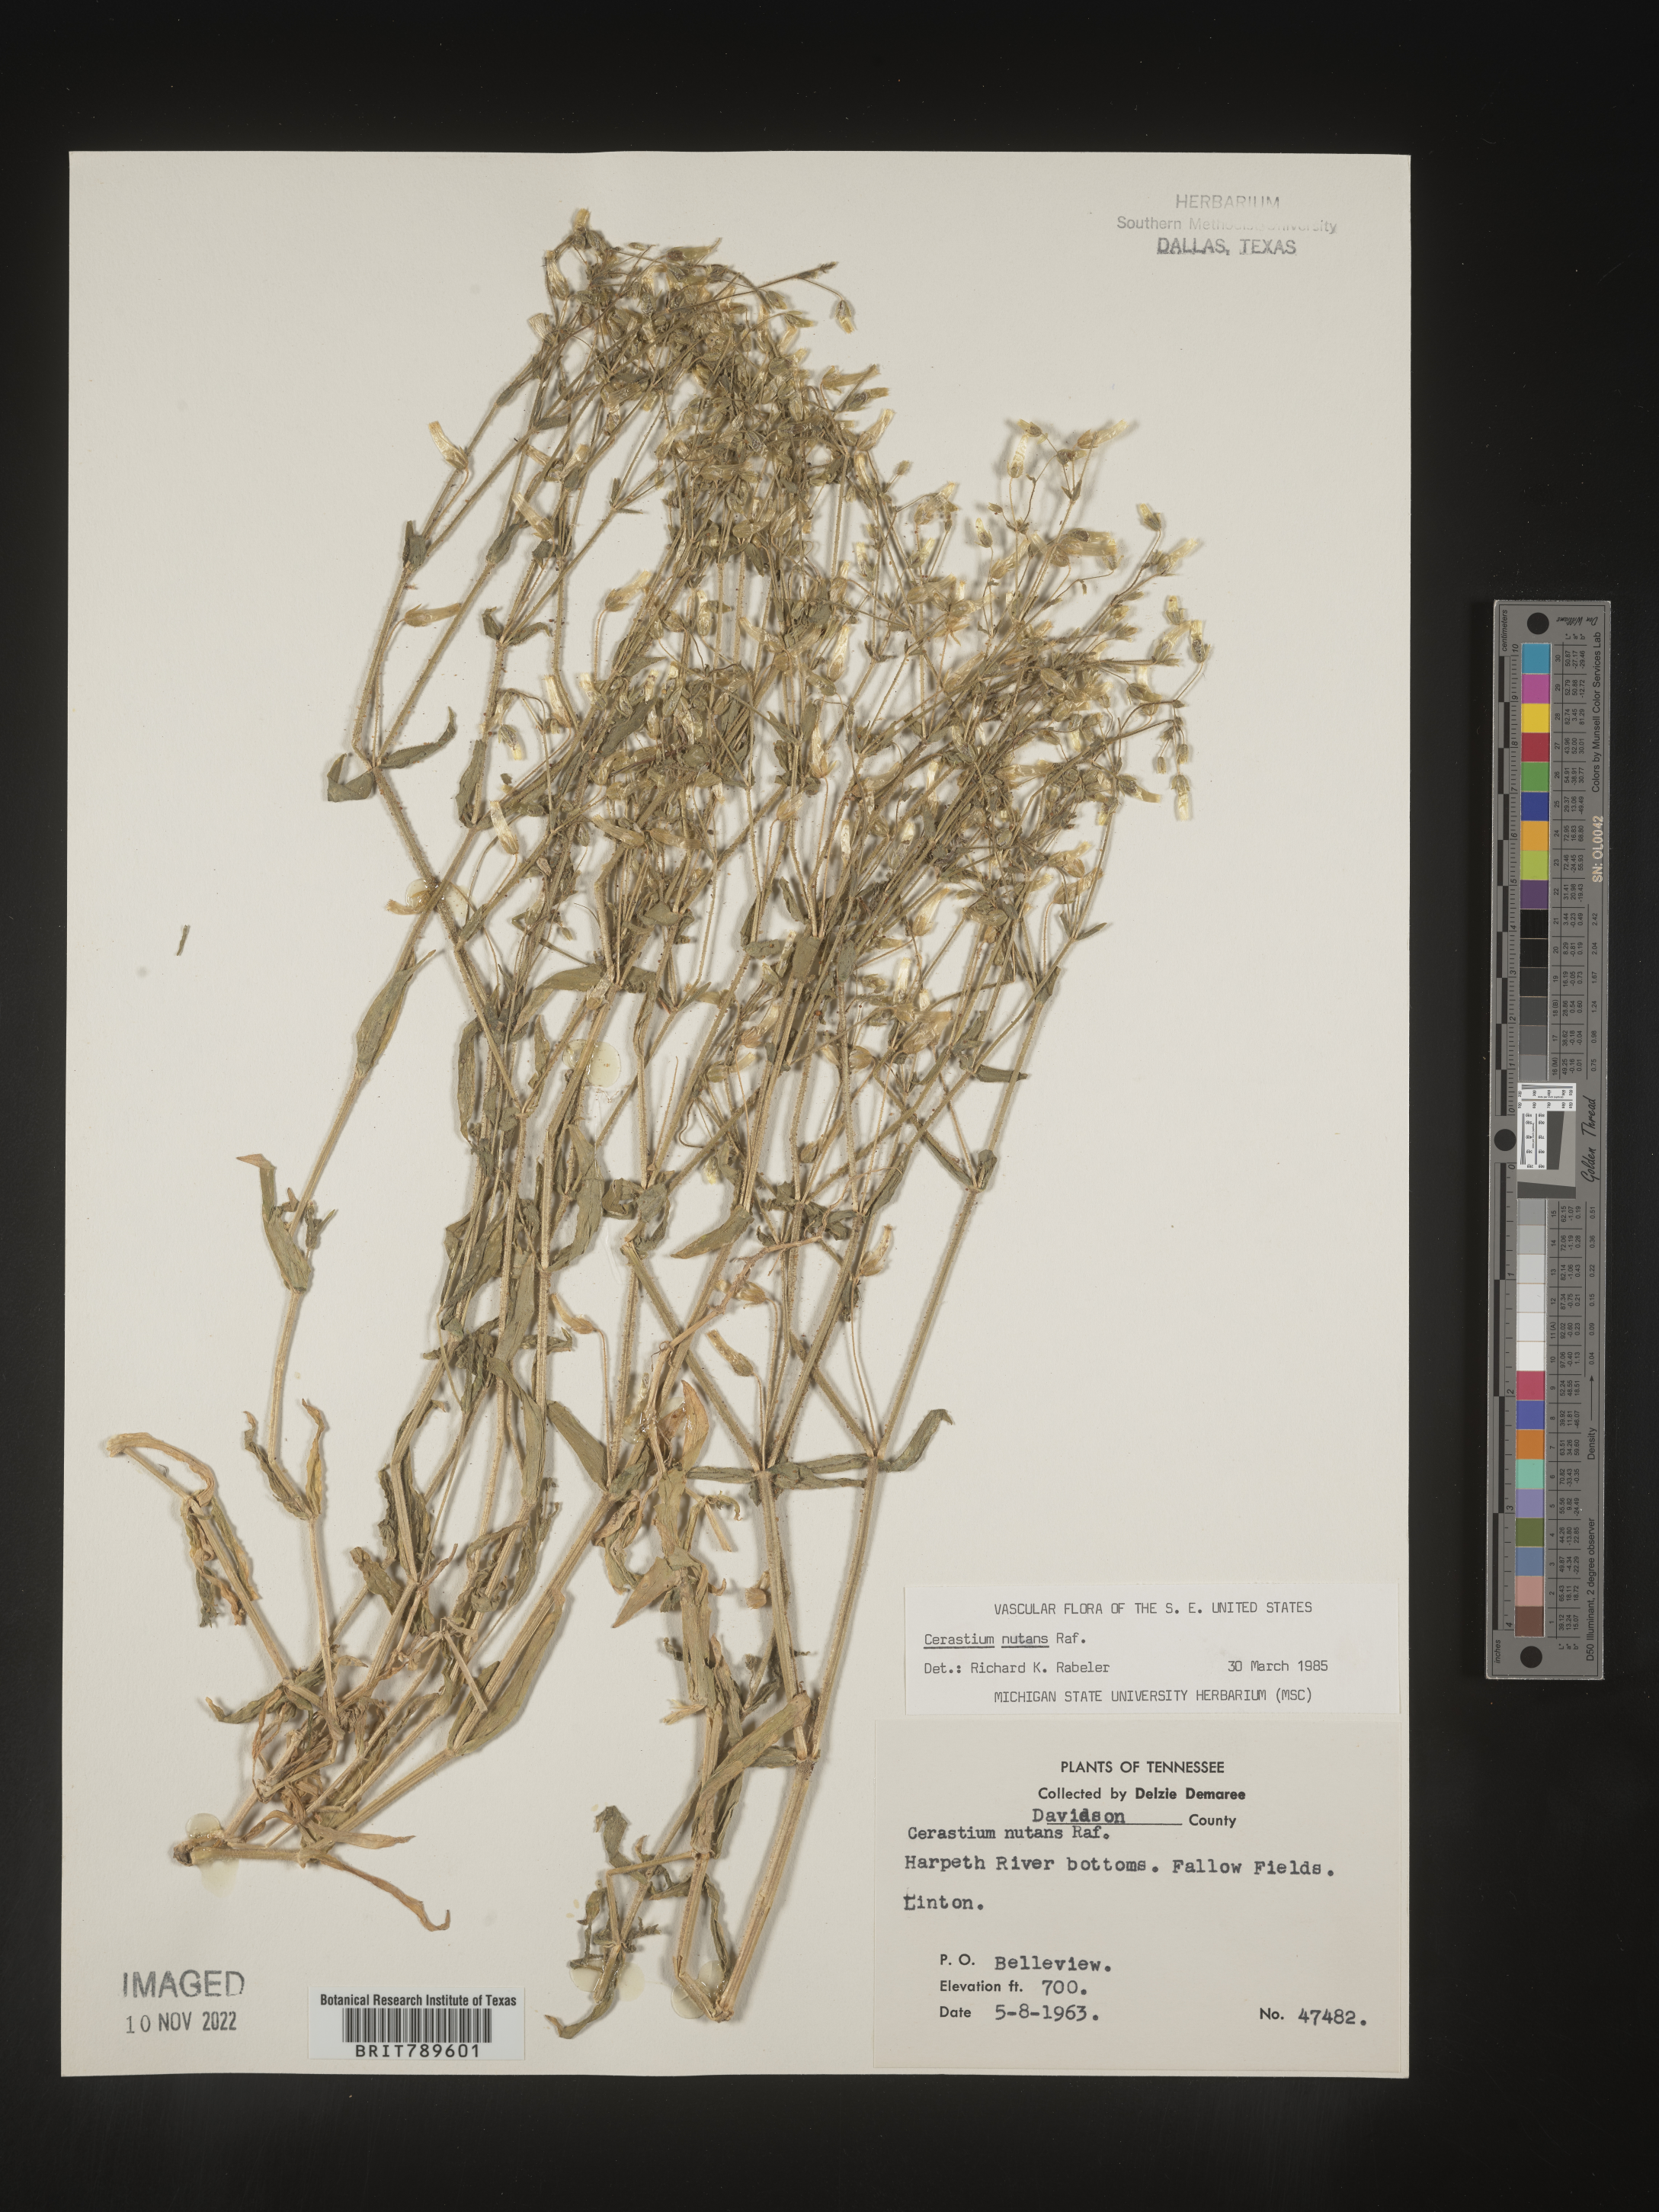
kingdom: Plantae
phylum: Tracheophyta
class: Magnoliopsida
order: Caryophyllales
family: Caryophyllaceae
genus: Cerastium
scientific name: Cerastium nutans
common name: Long-stalked chickweed
